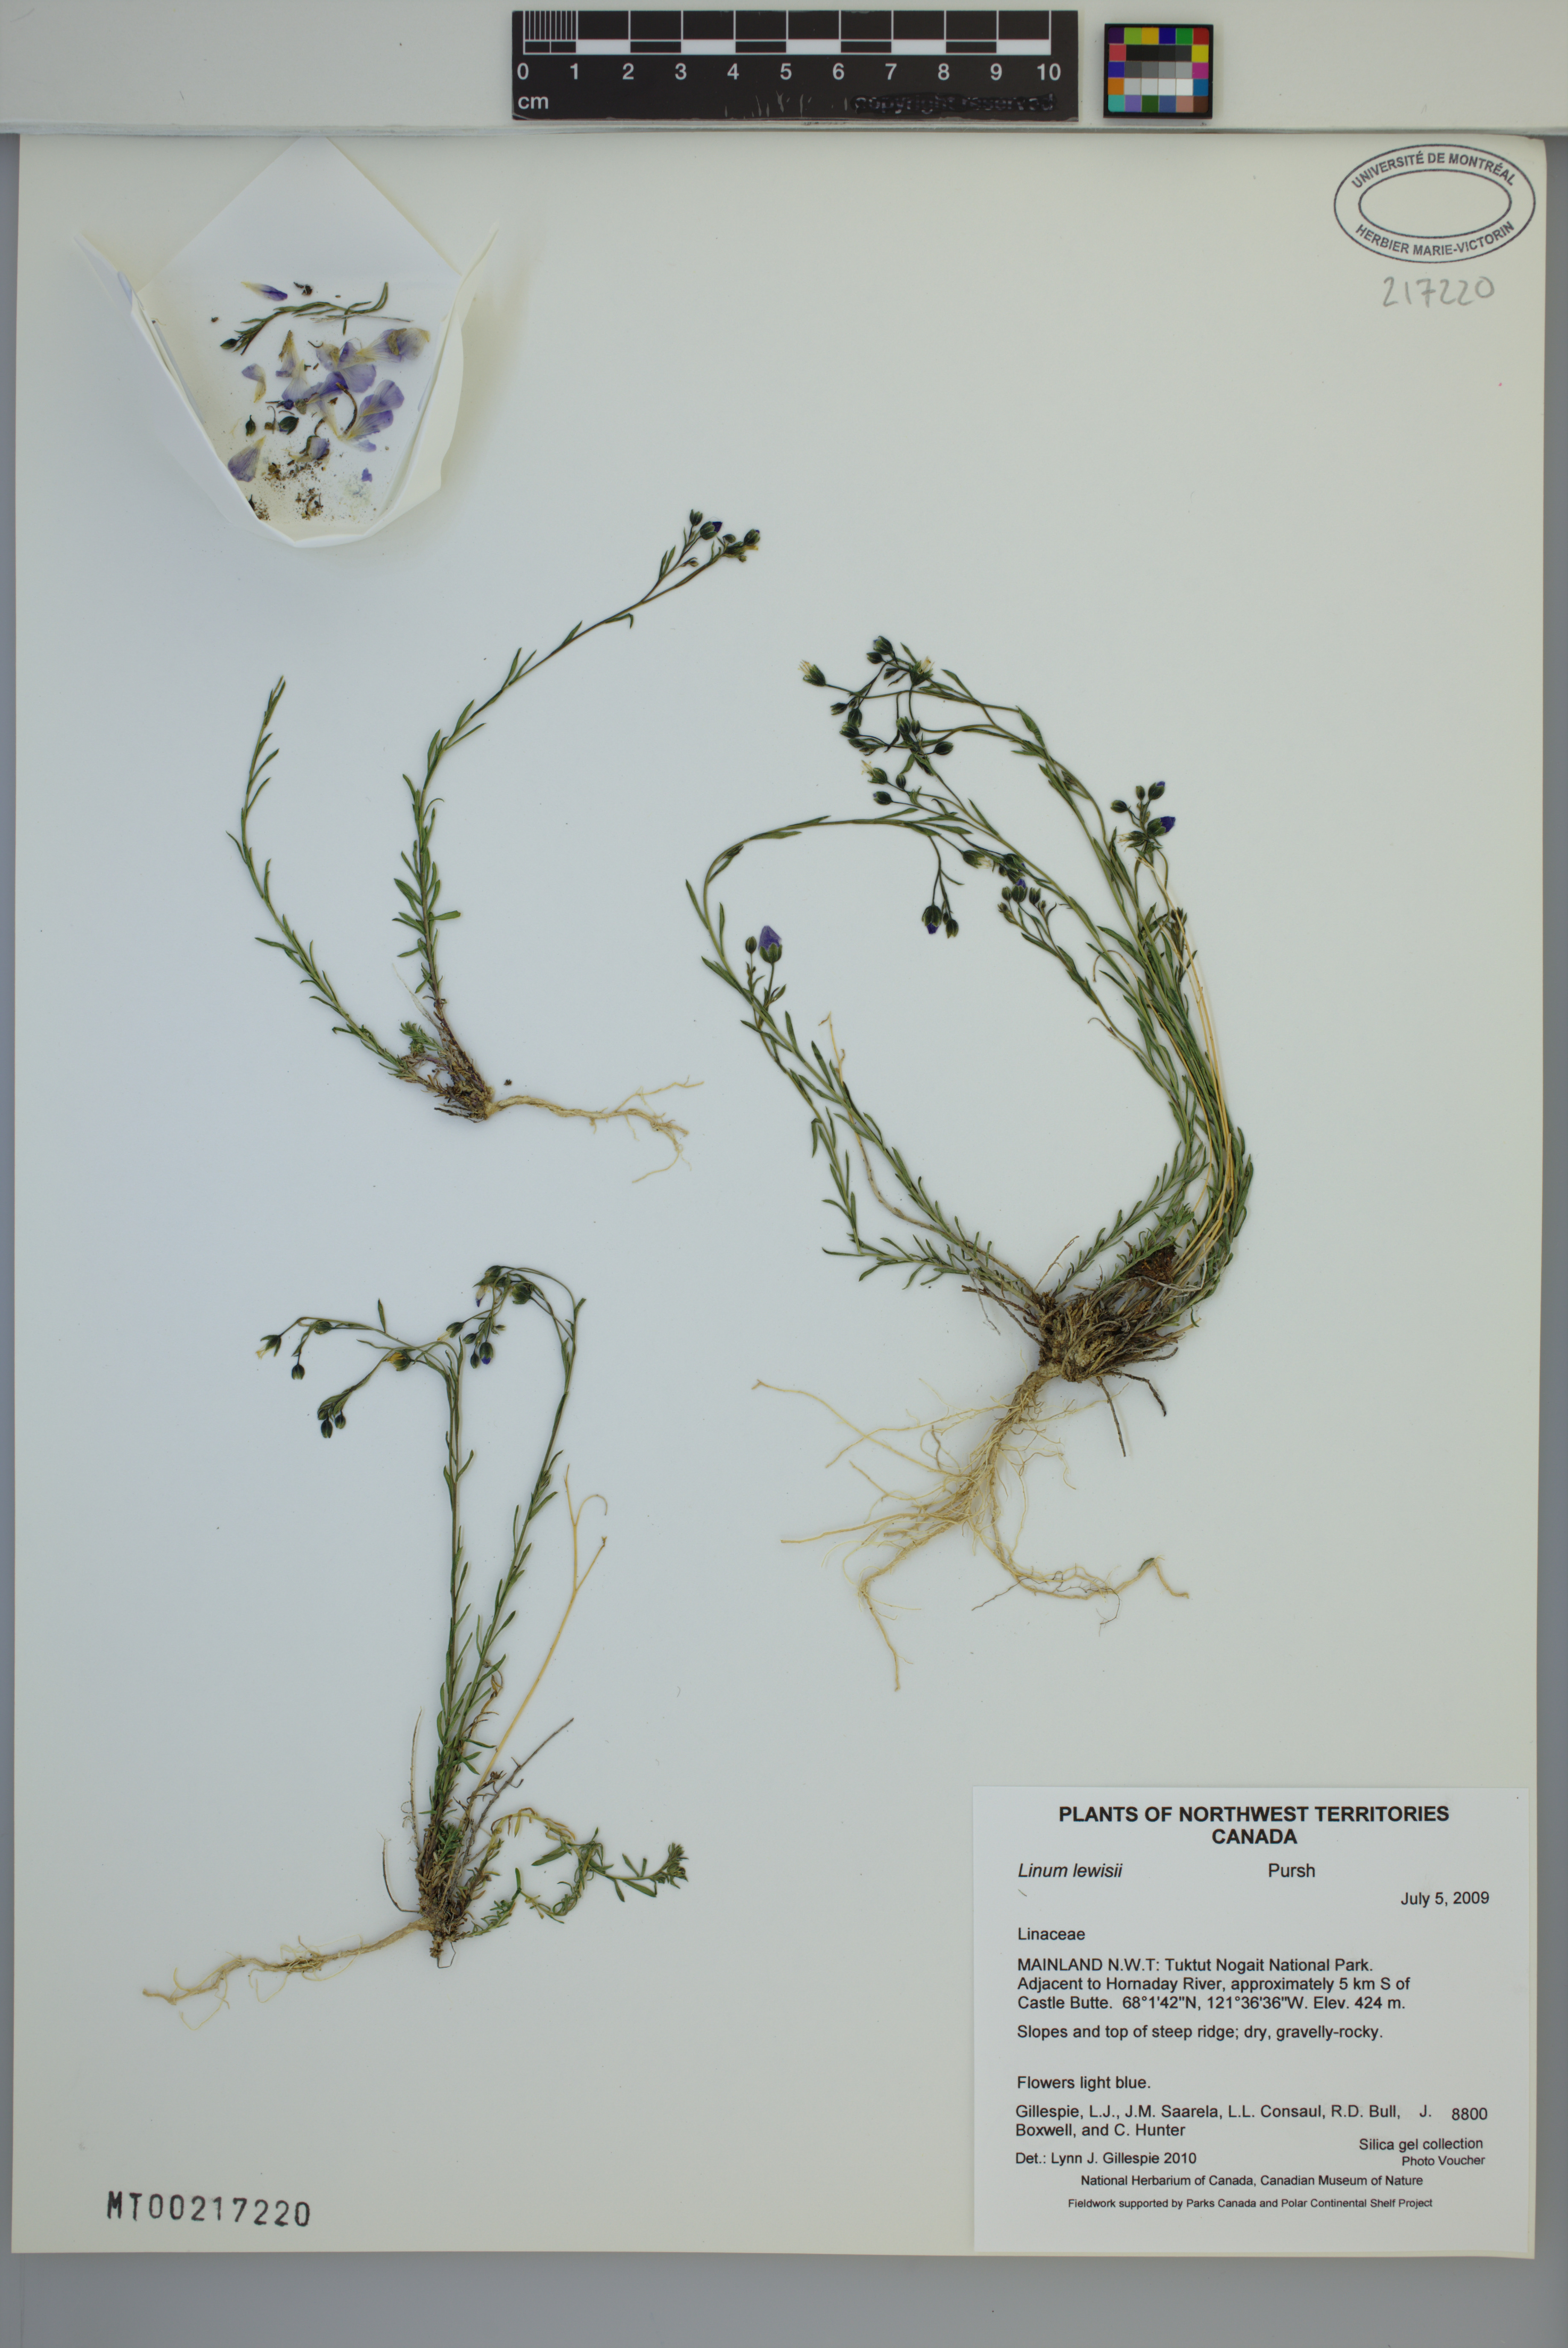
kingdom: Plantae
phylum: Tracheophyta
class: Magnoliopsida
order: Malpighiales
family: Linaceae
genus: Linum
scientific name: Linum lewisii
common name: Prairie flax
